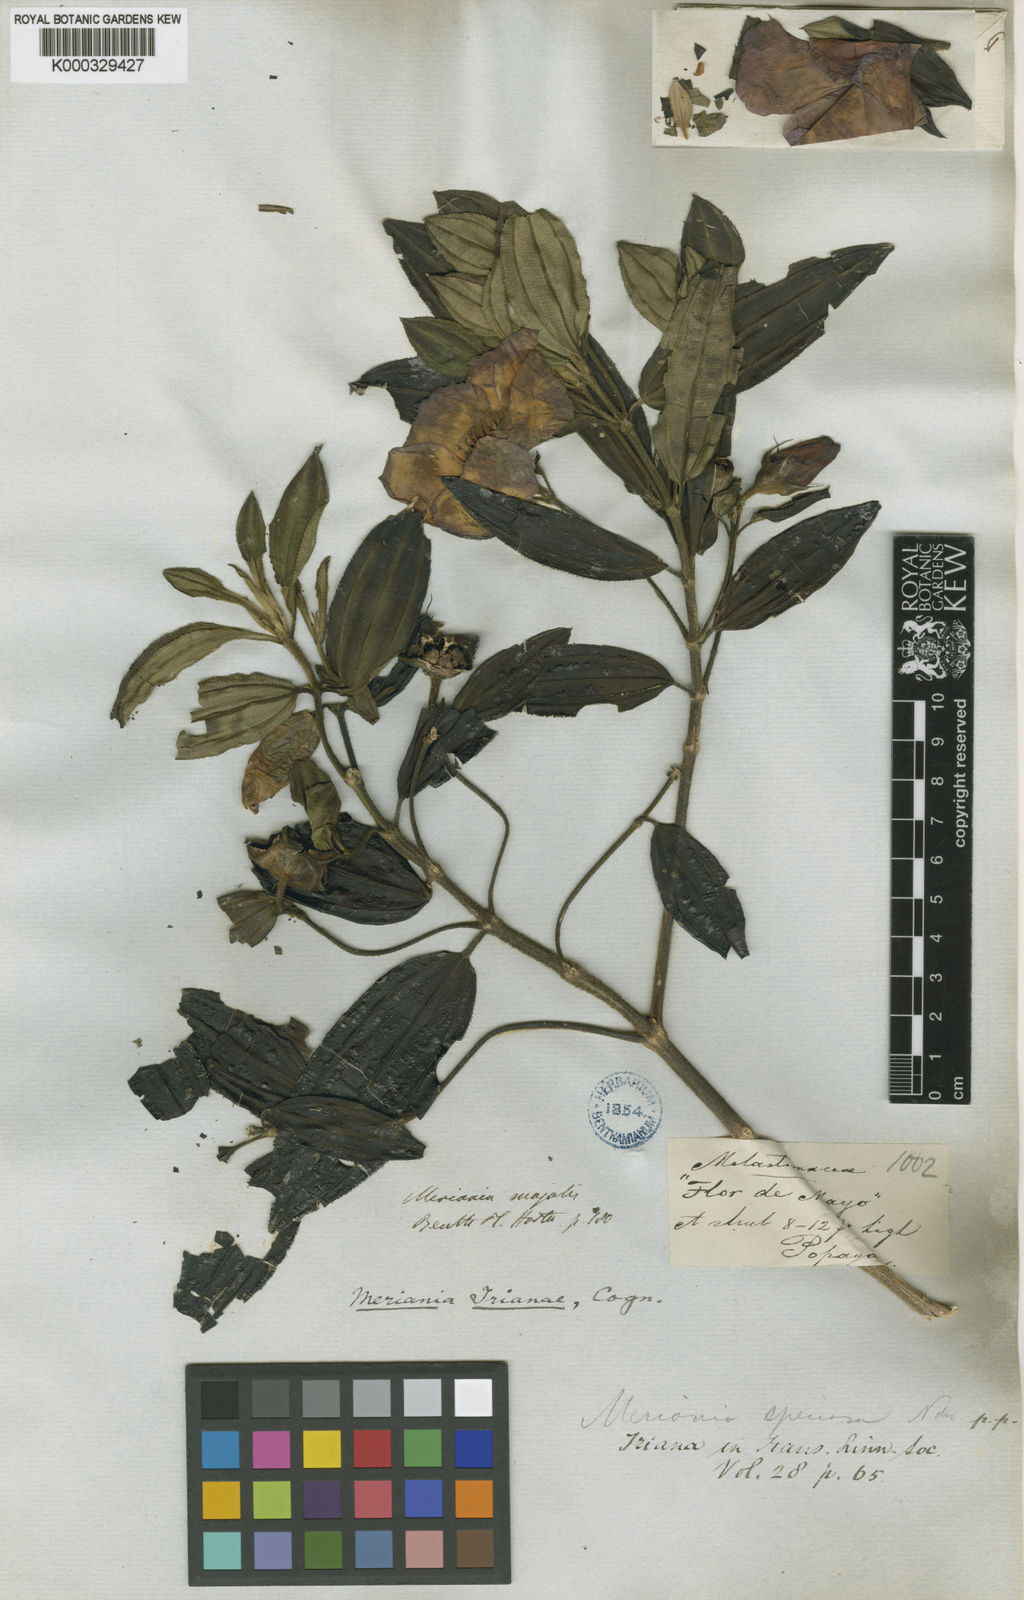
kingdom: Plantae
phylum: Tracheophyta
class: Magnoliopsida
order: Myrtales
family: Melastomataceae
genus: Meriania
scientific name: Meriania speciosa
